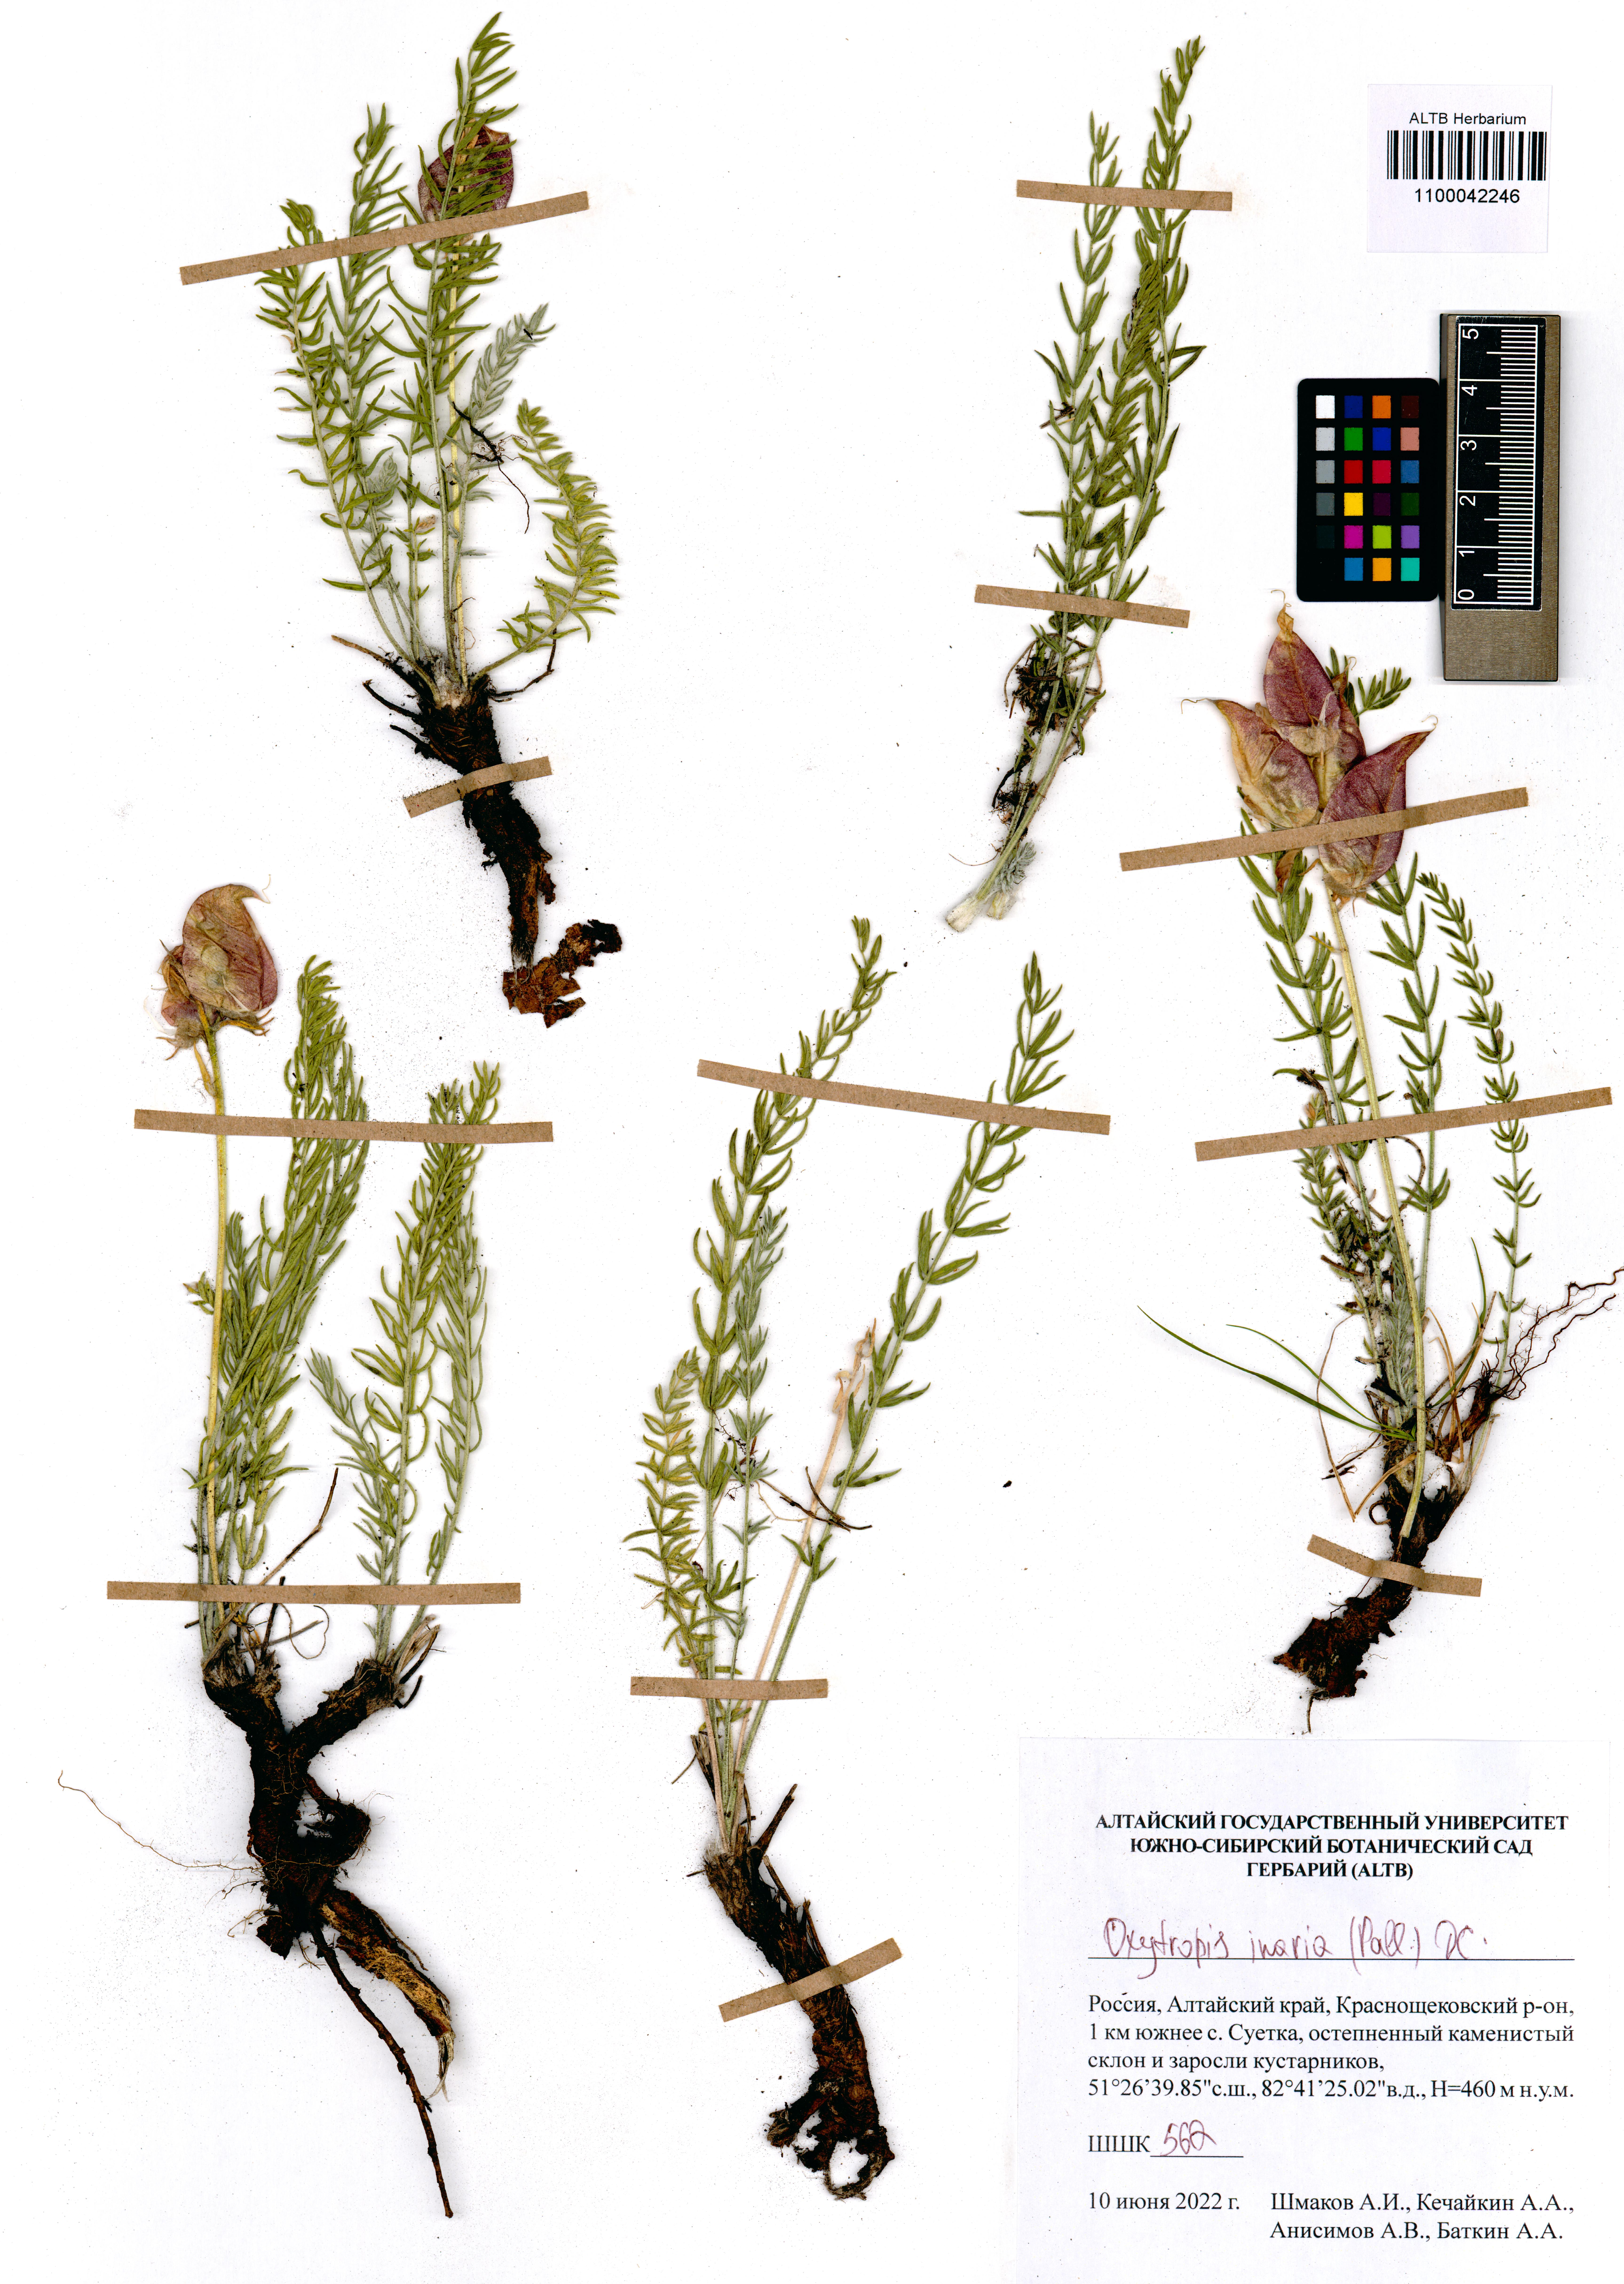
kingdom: Plantae
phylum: Tracheophyta
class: Magnoliopsida
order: Fabales
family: Fabaceae
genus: Oxytropis
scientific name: Oxytropis inaria
